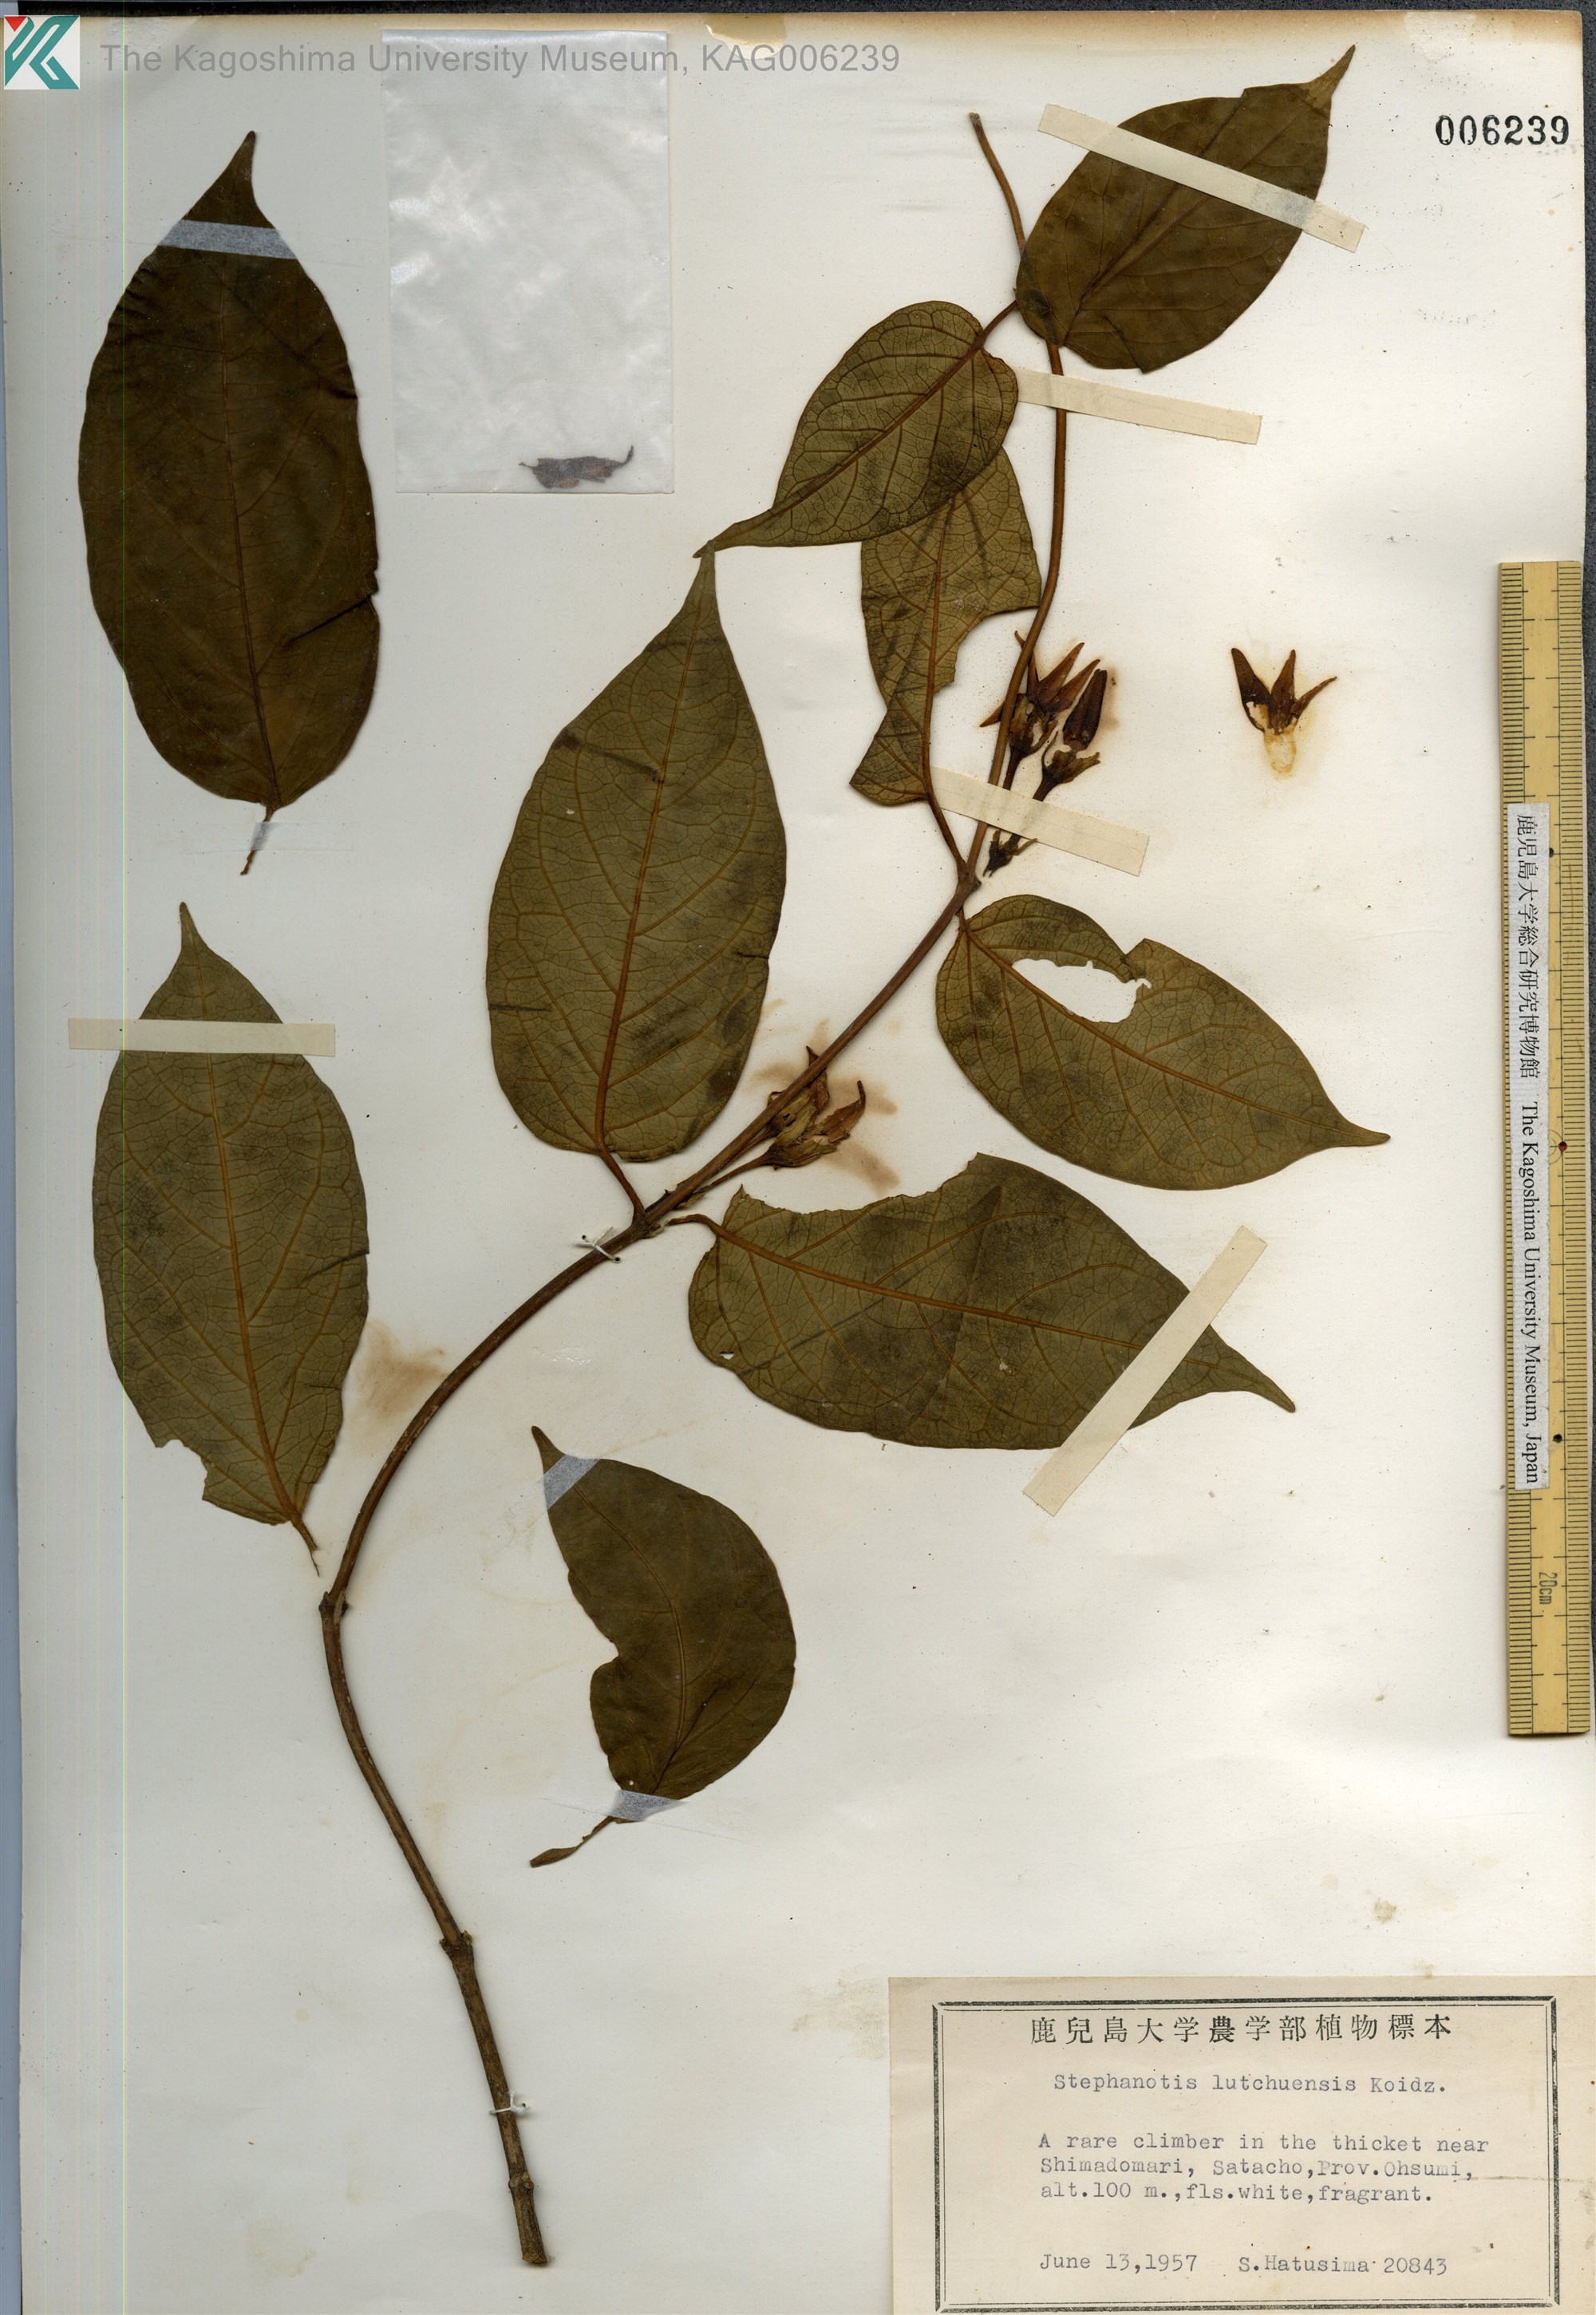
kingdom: Plantae
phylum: Tracheophyta
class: Magnoliopsida
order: Gentianales
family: Apocynaceae
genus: Jasminanthes
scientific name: Jasminanthes mucronata
